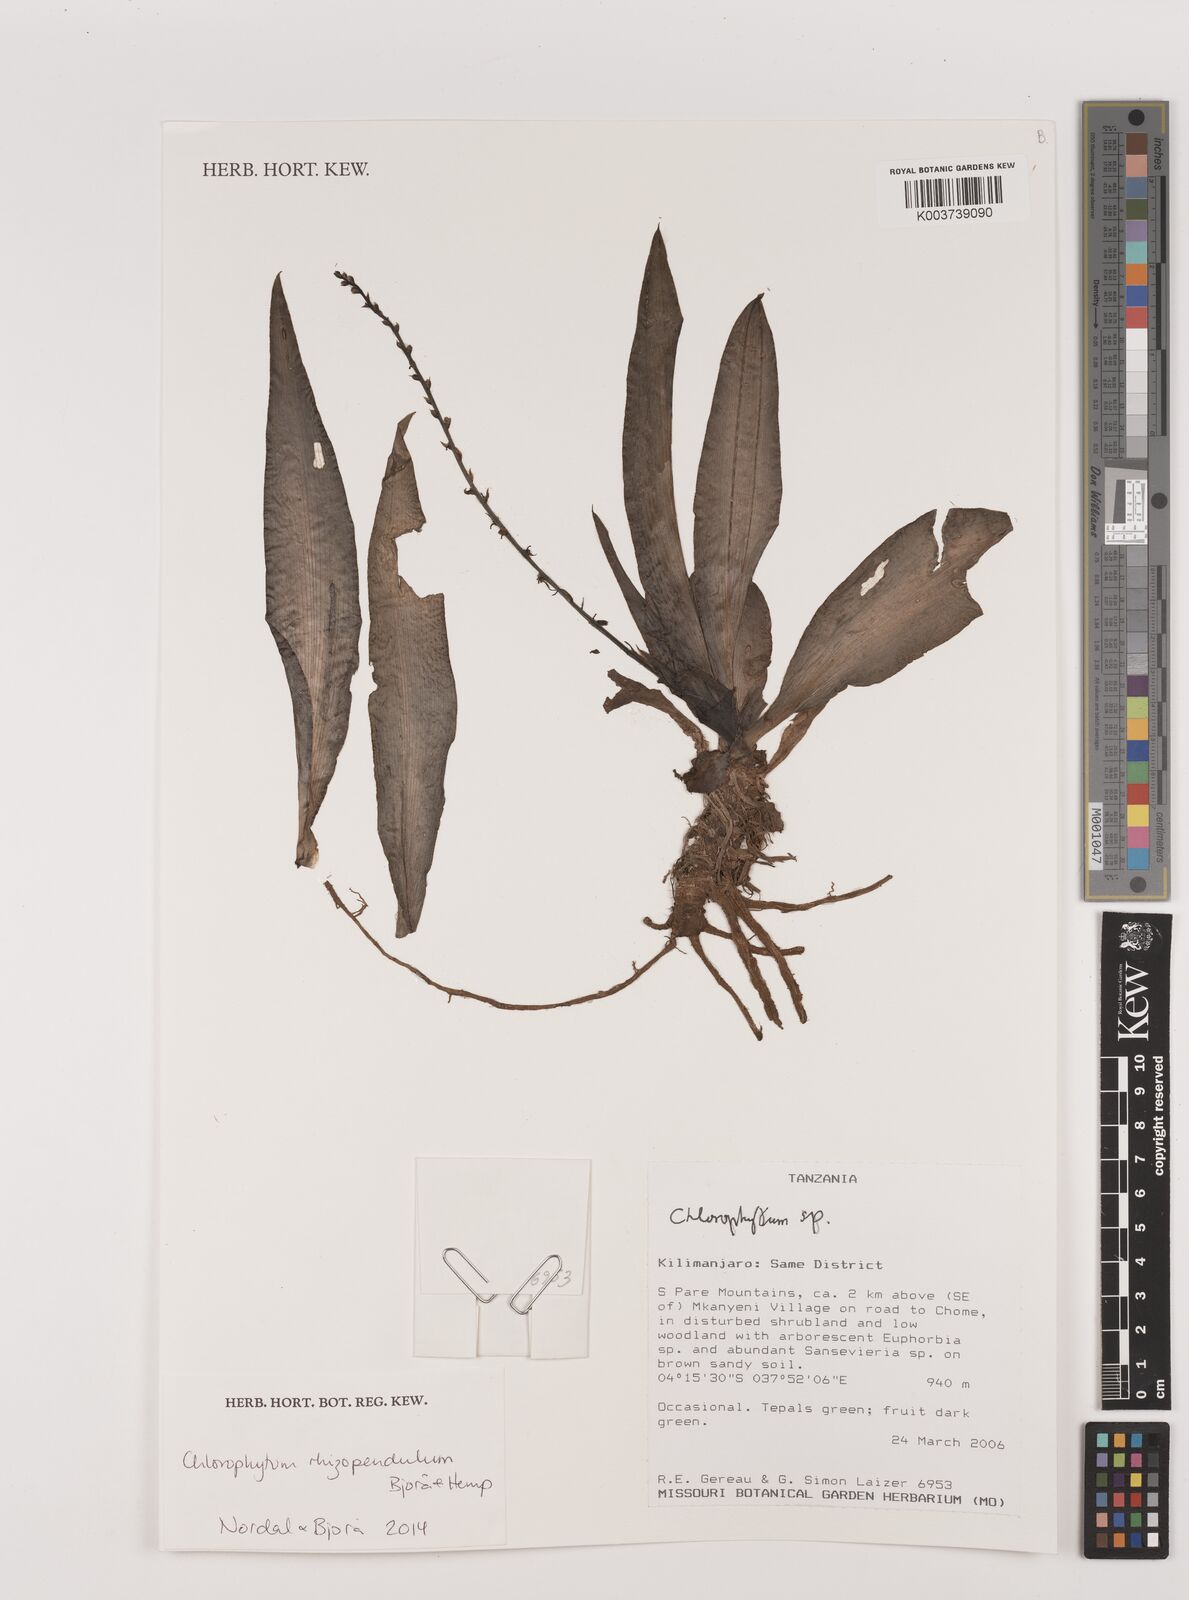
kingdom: Plantae
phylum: Tracheophyta
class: Liliopsida
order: Asparagales
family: Asparagaceae
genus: Chlorophytum
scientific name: Chlorophytum rhizopendulum
